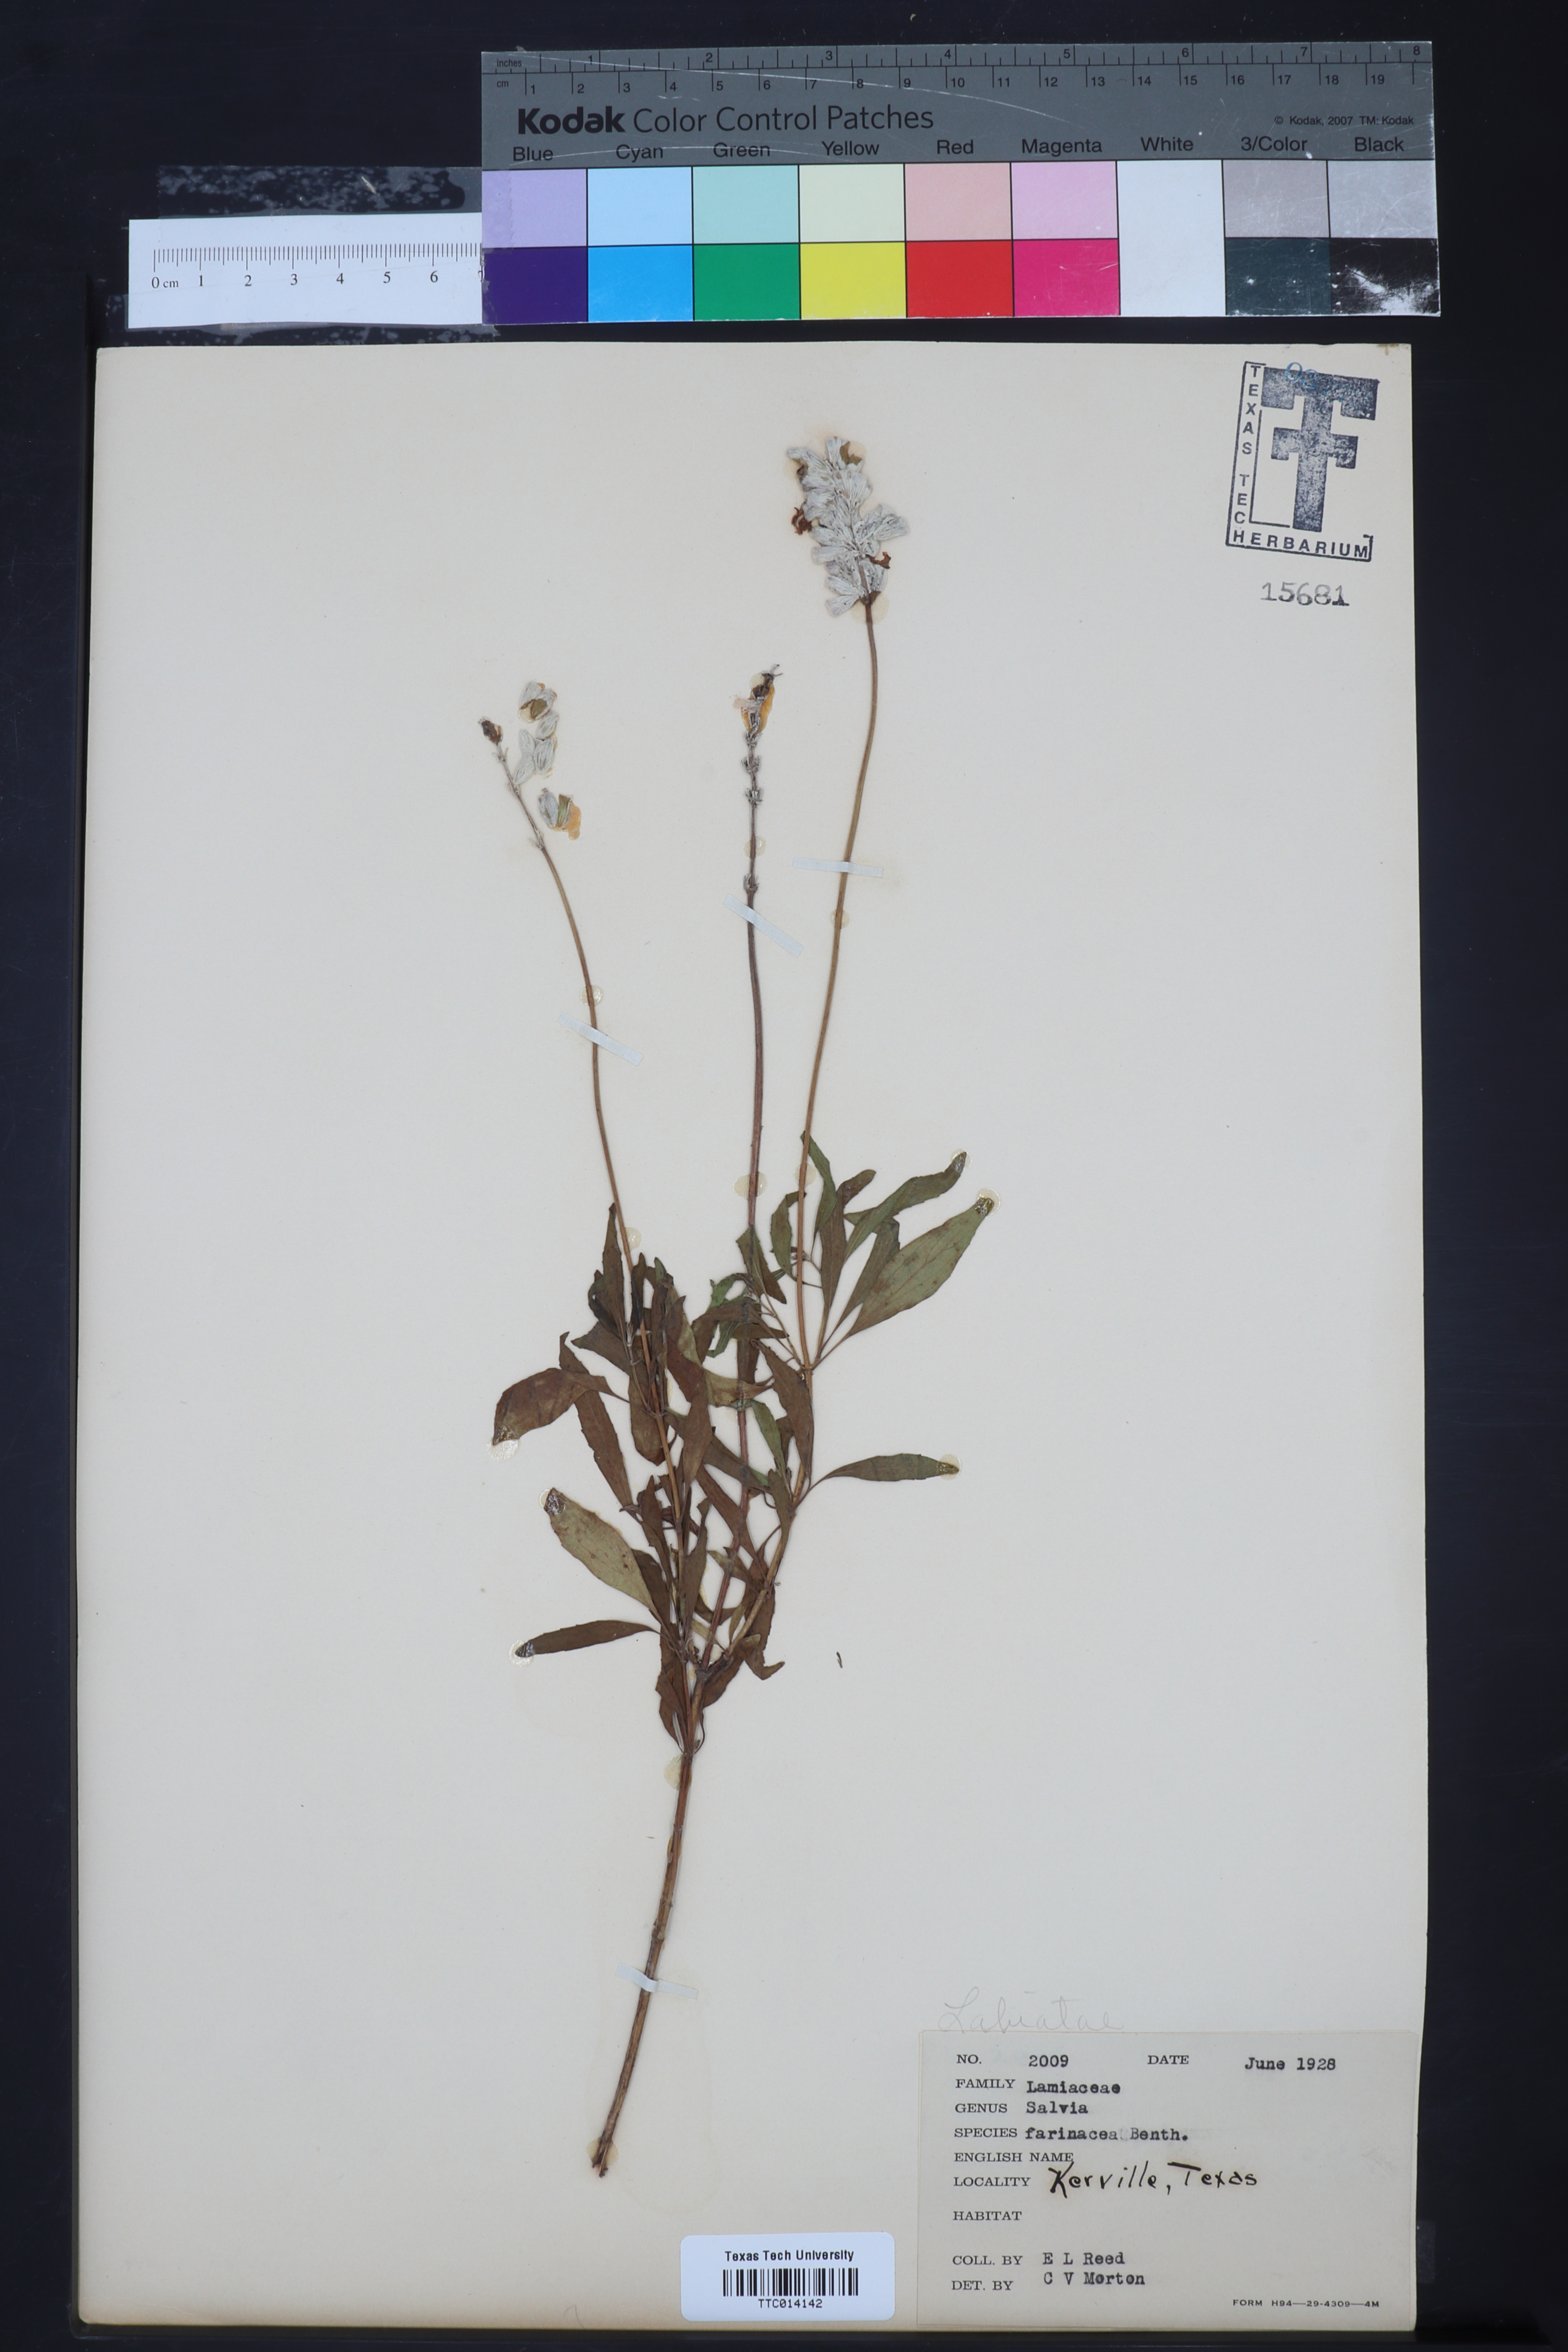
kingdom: Plantae
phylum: Tracheophyta
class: Magnoliopsida
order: Lamiales
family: Lamiaceae
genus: Salvia
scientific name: Salvia farinacea
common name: Mealy sage
